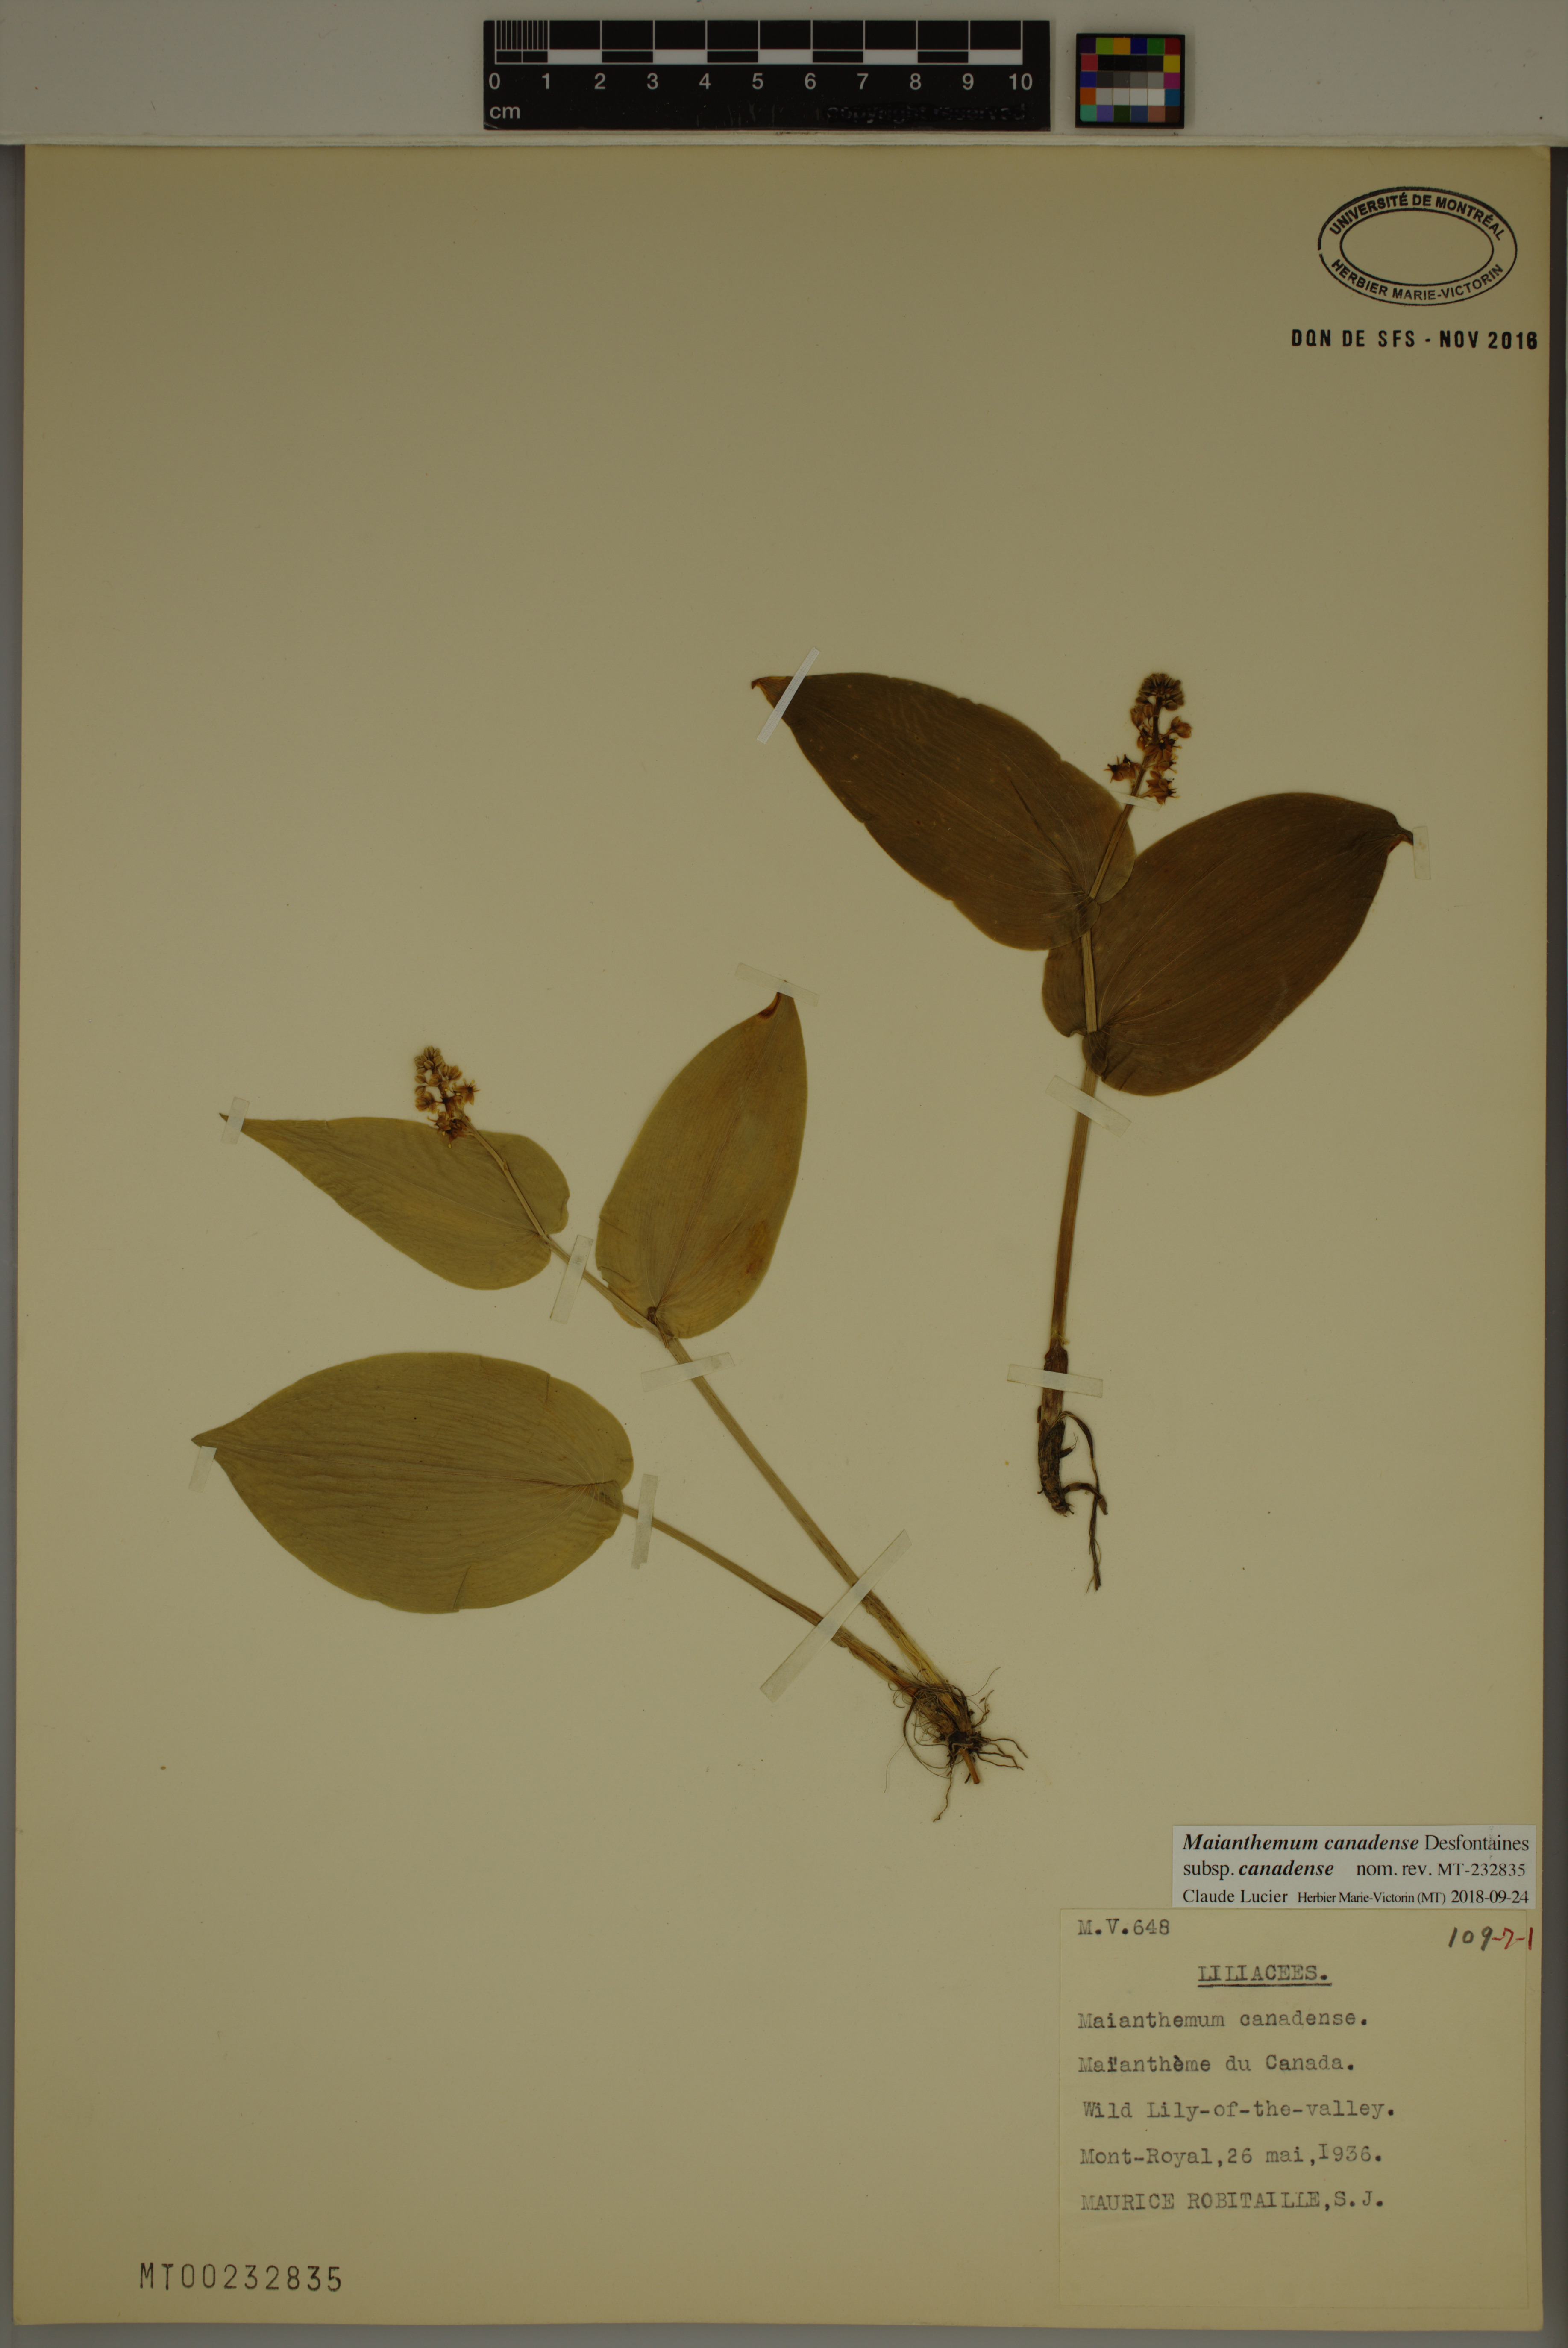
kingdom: Plantae
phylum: Tracheophyta
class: Liliopsida
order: Asparagales
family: Asparagaceae
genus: Maianthemum
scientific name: Maianthemum canadense
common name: False lily-of-the-valley
